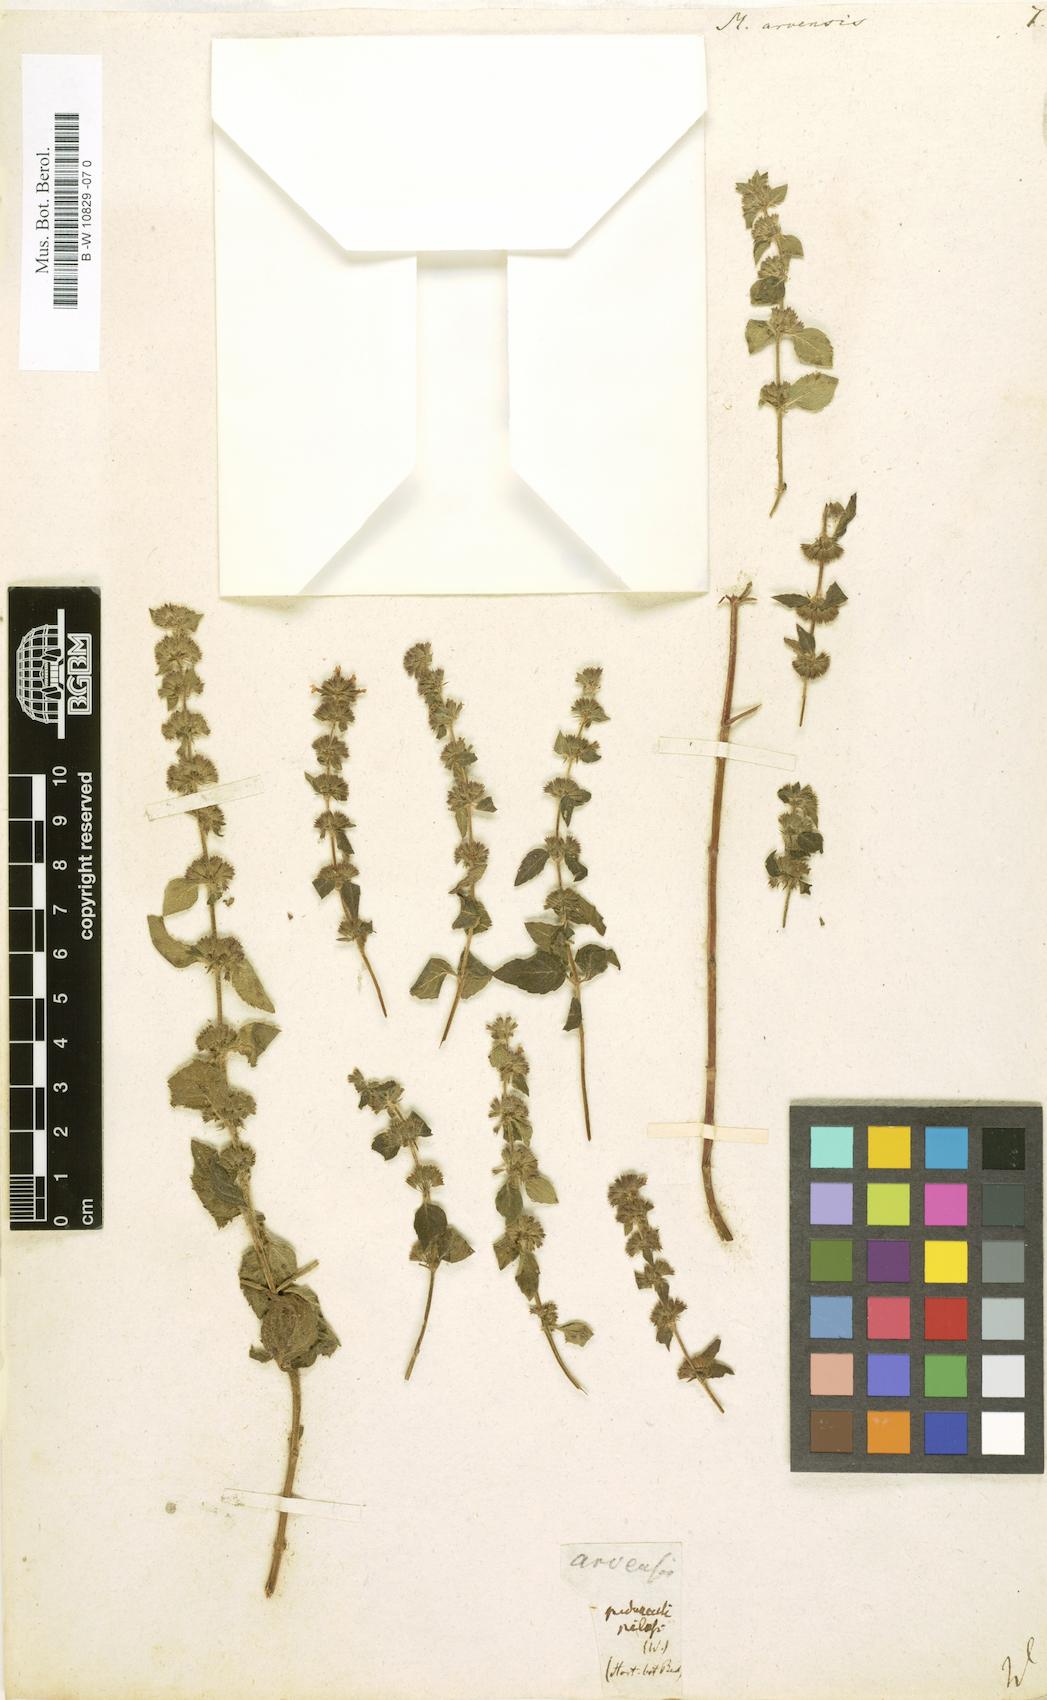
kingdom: Plantae
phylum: Tracheophyta
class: Magnoliopsida
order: Lamiales
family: Lamiaceae
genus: Mentha
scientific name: Mentha arvensis
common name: Corn mint
